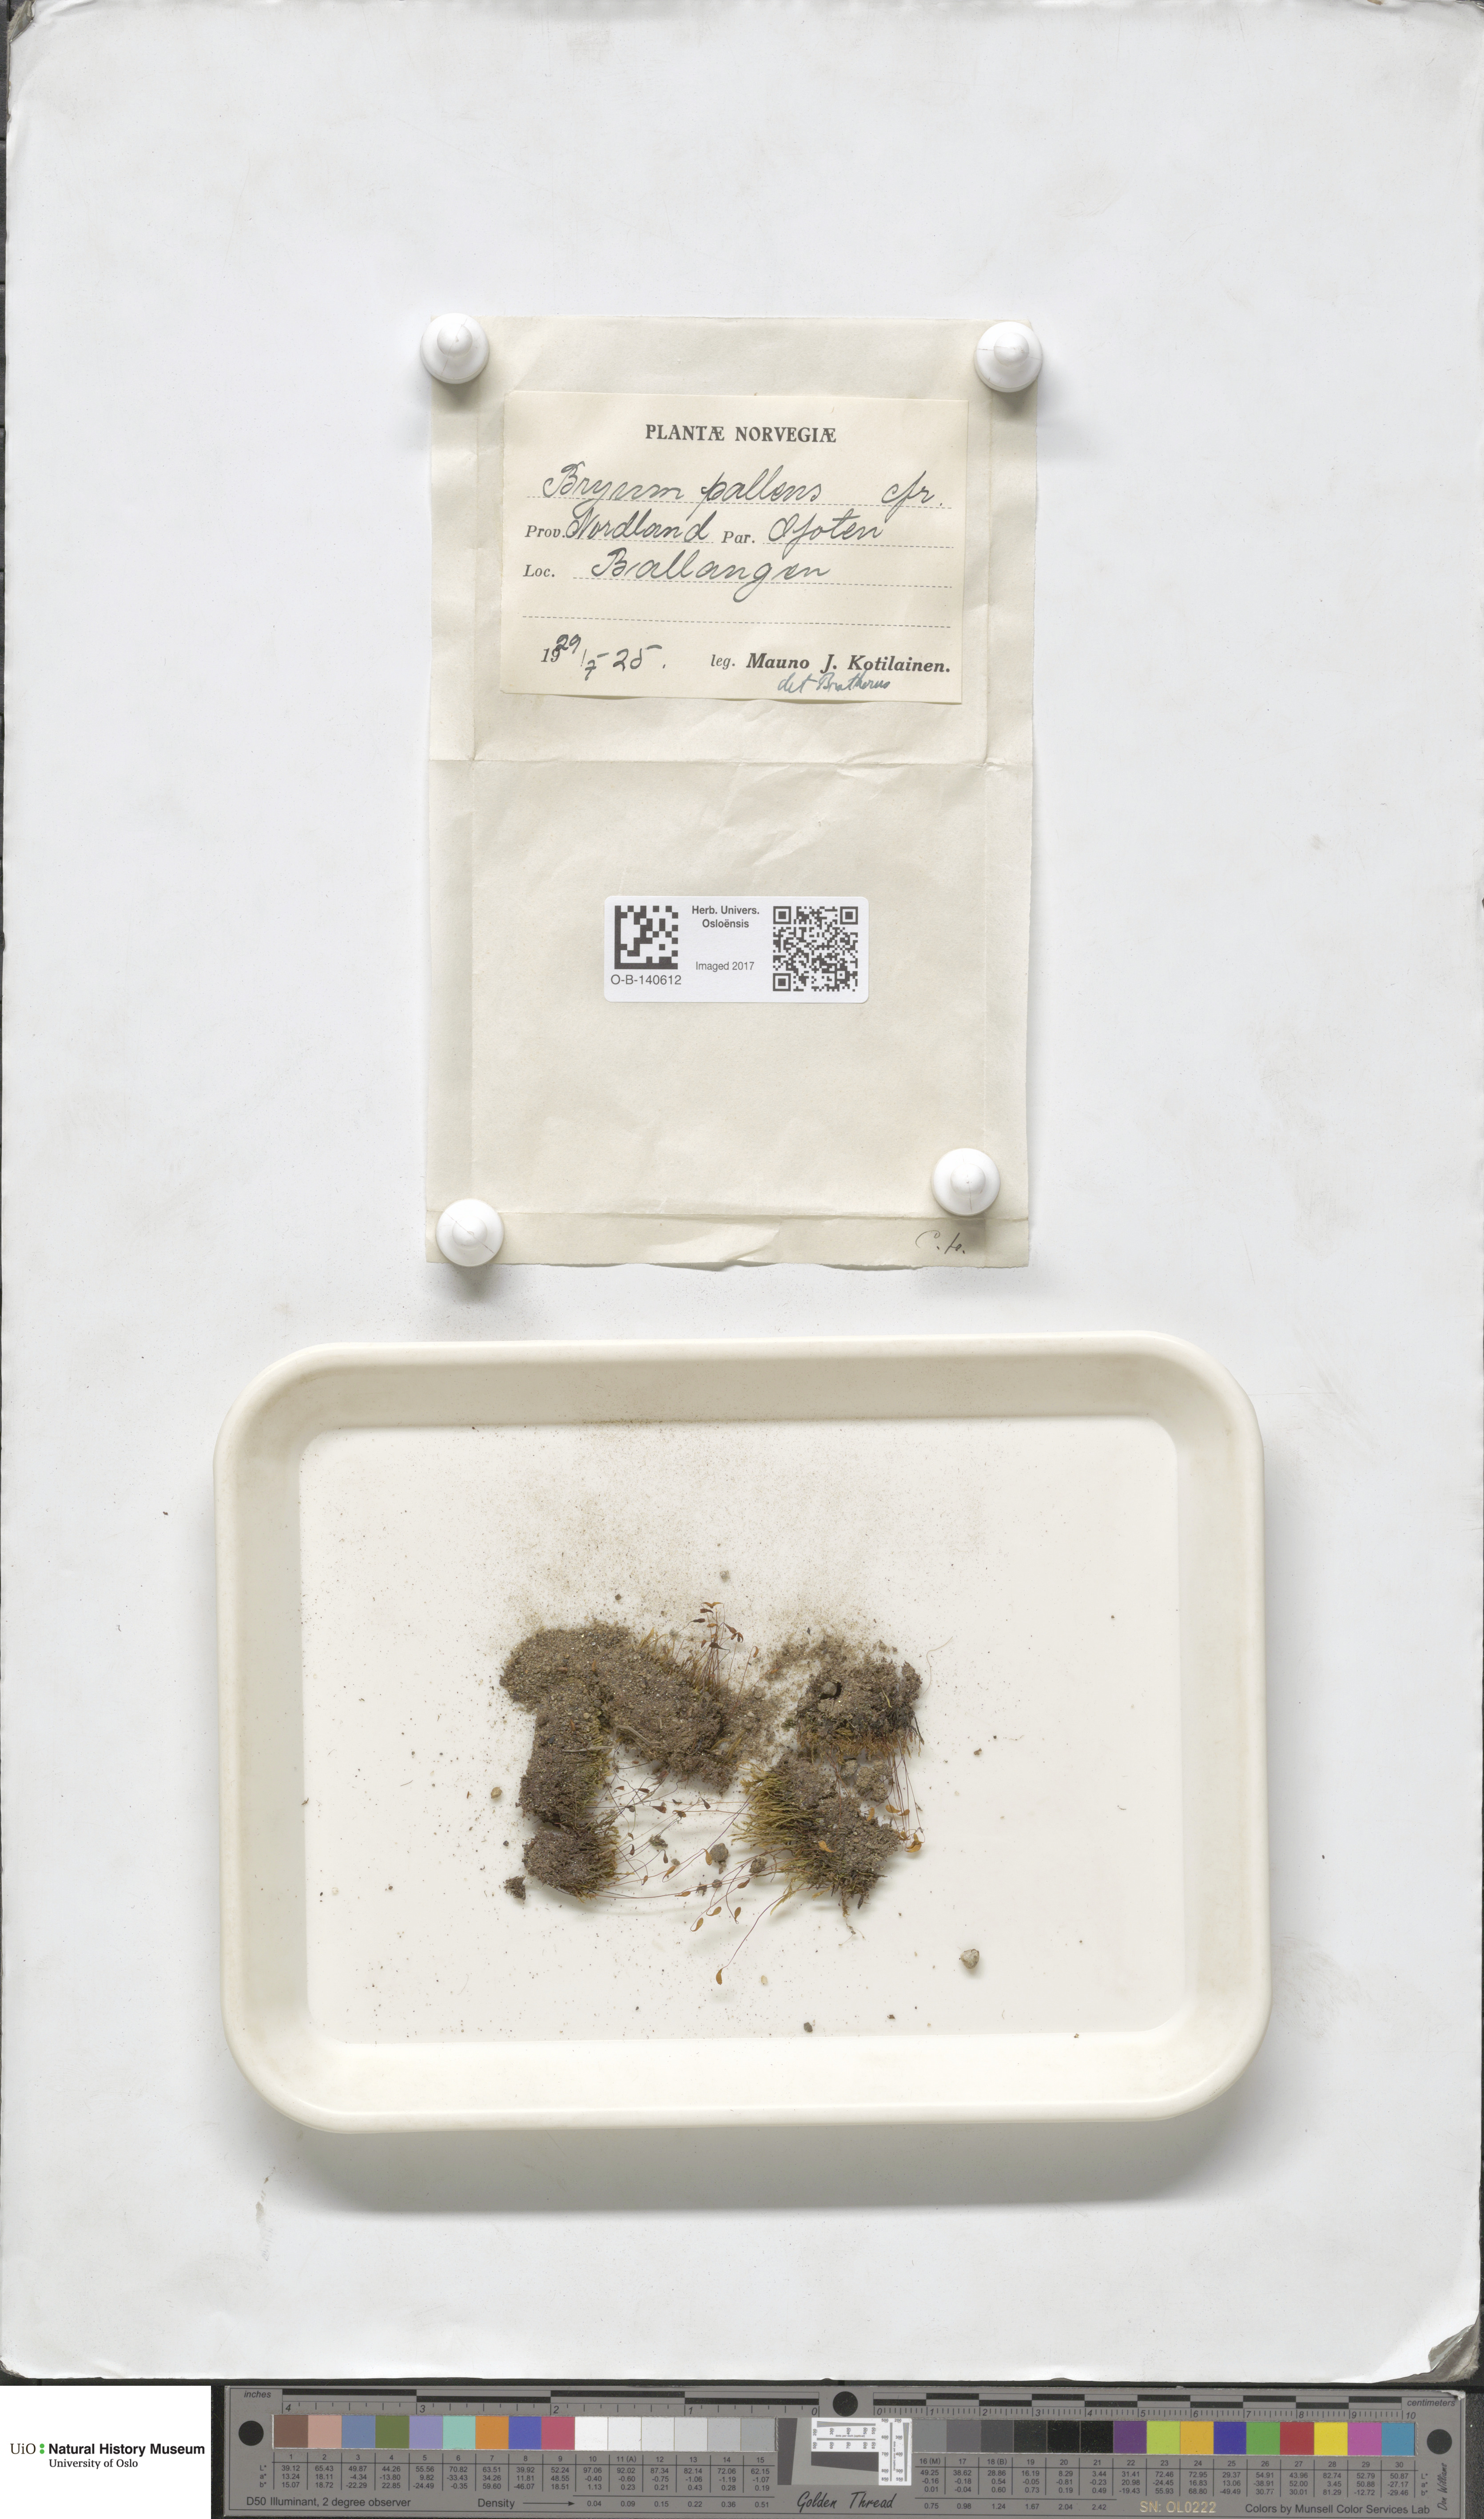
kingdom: Plantae
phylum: Bryophyta
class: Bryopsida
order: Bryales
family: Bryaceae
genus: Ptychostomum
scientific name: Ptychostomum pallens
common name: Pale thread-moss
